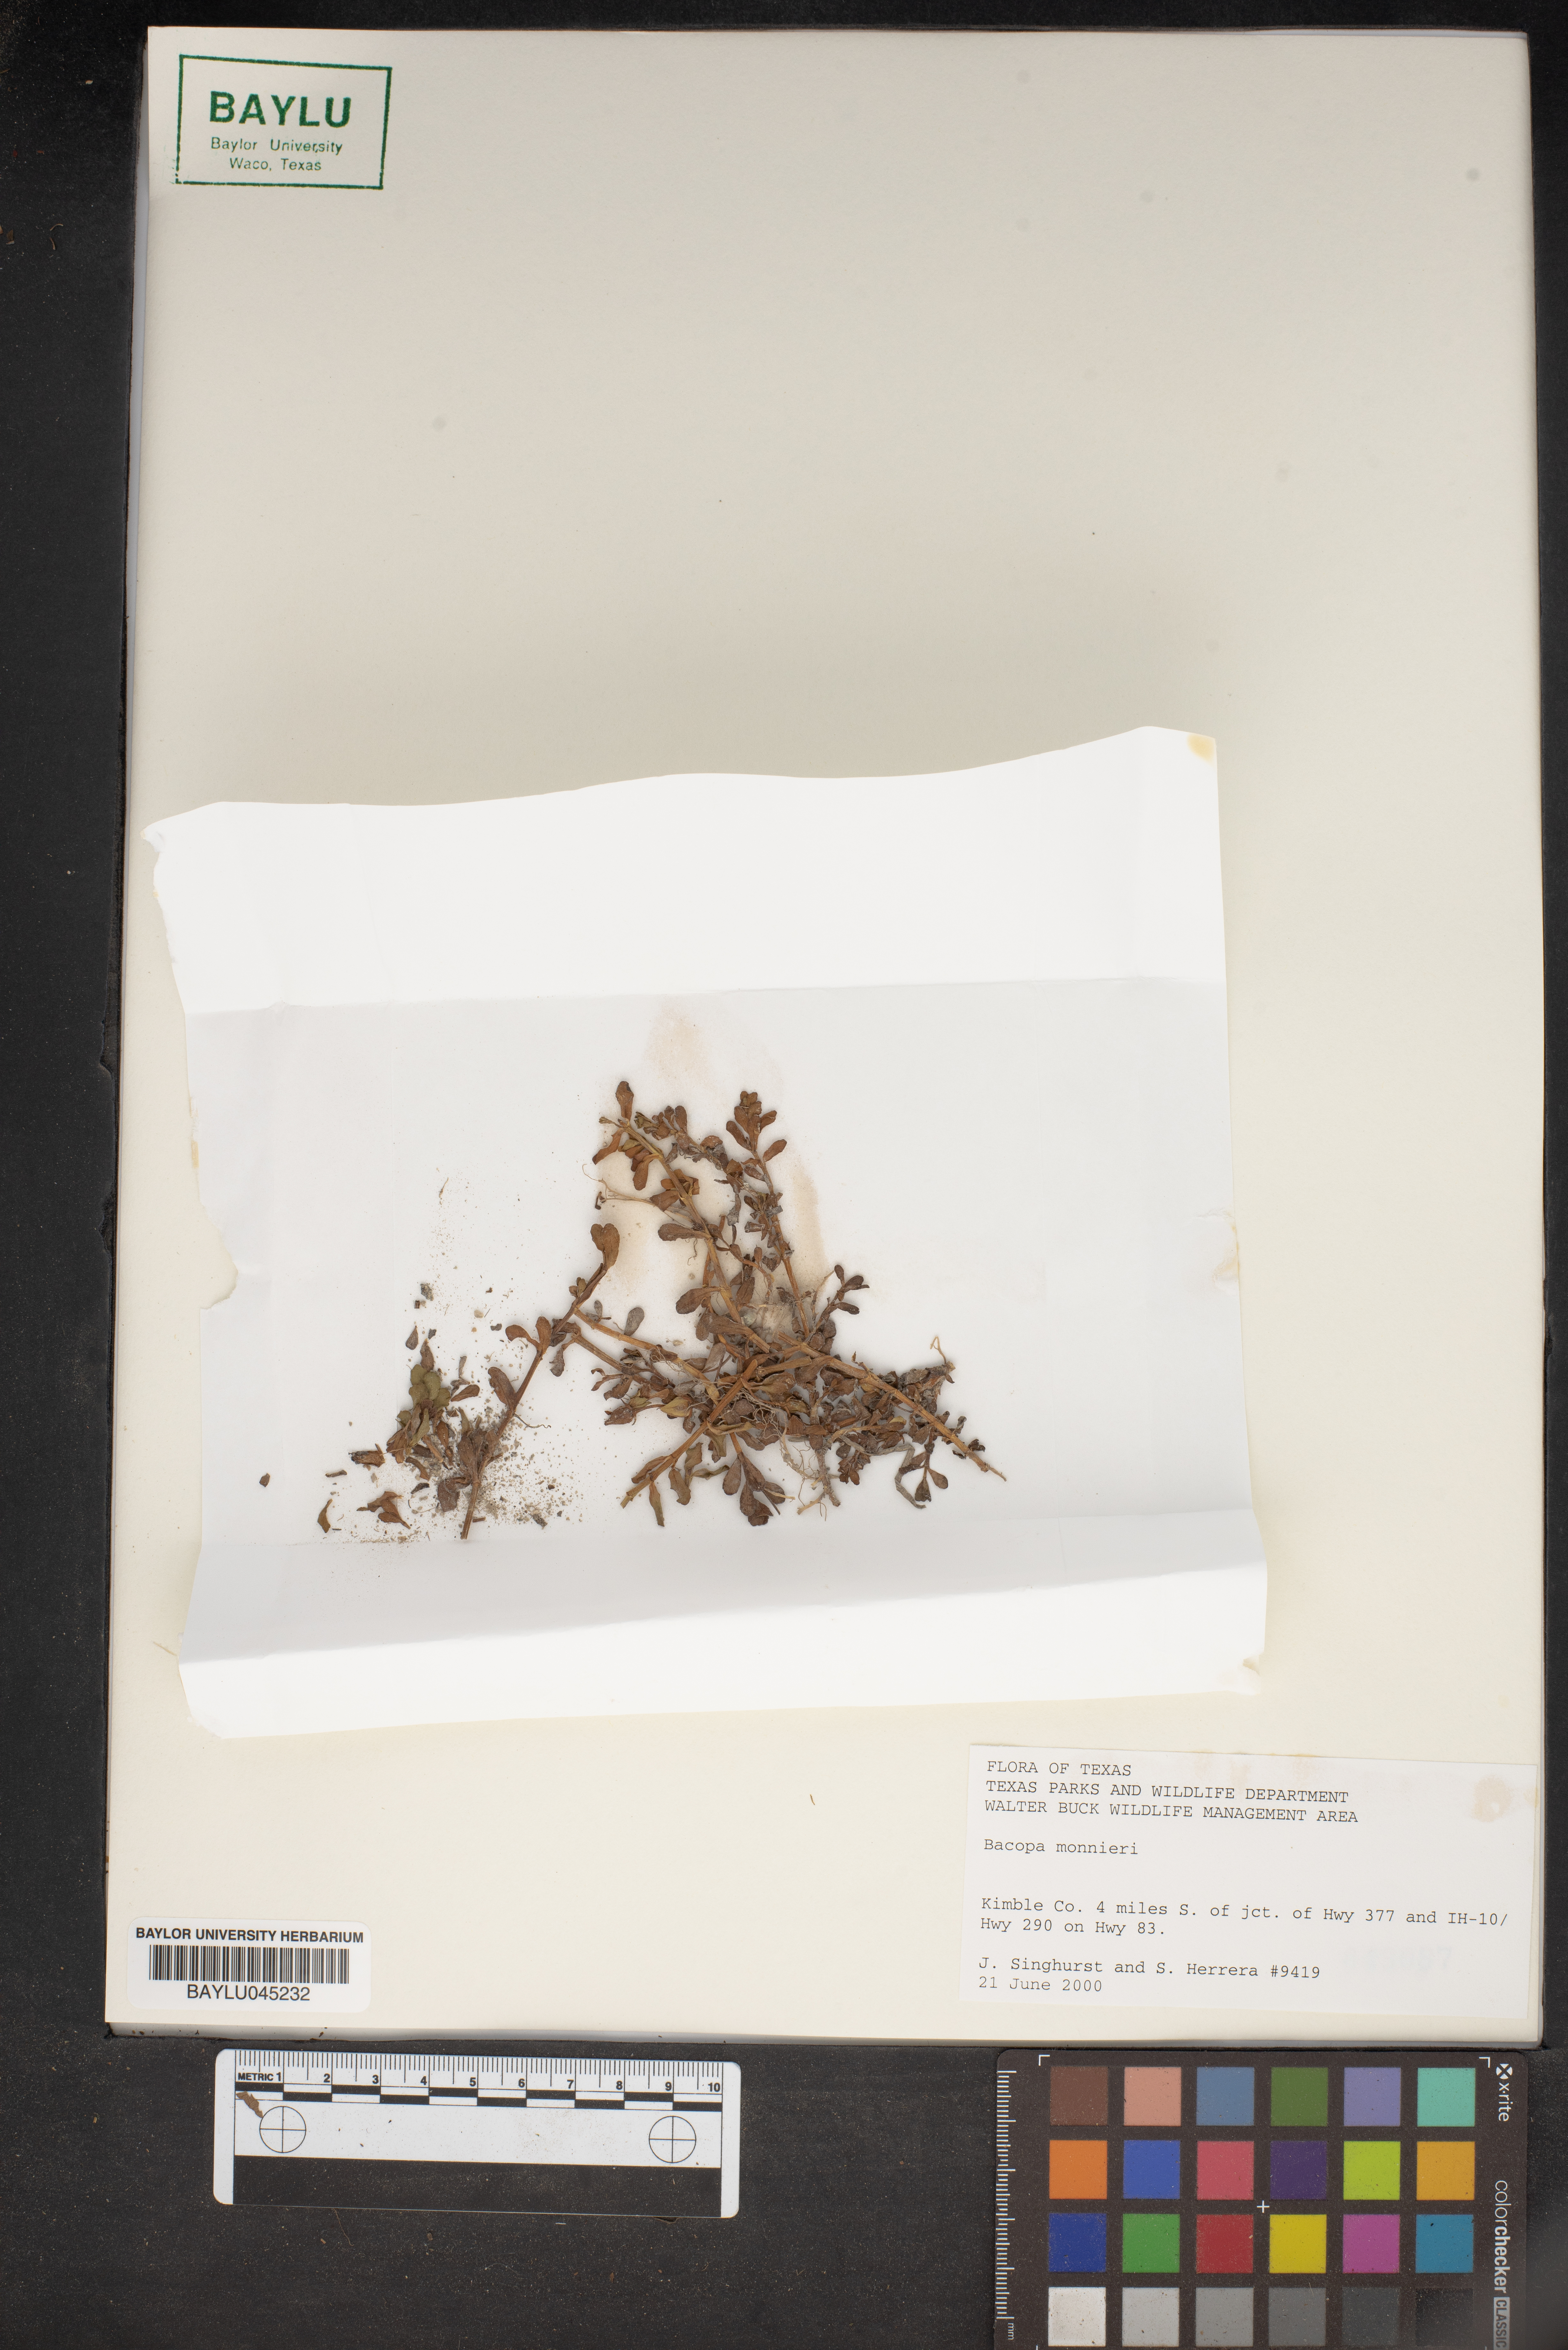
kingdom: Plantae
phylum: Tracheophyta
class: Magnoliopsida
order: Lamiales
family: Plantaginaceae
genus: Bacopa
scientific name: Bacopa monnieri
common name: Indian-pennywort
